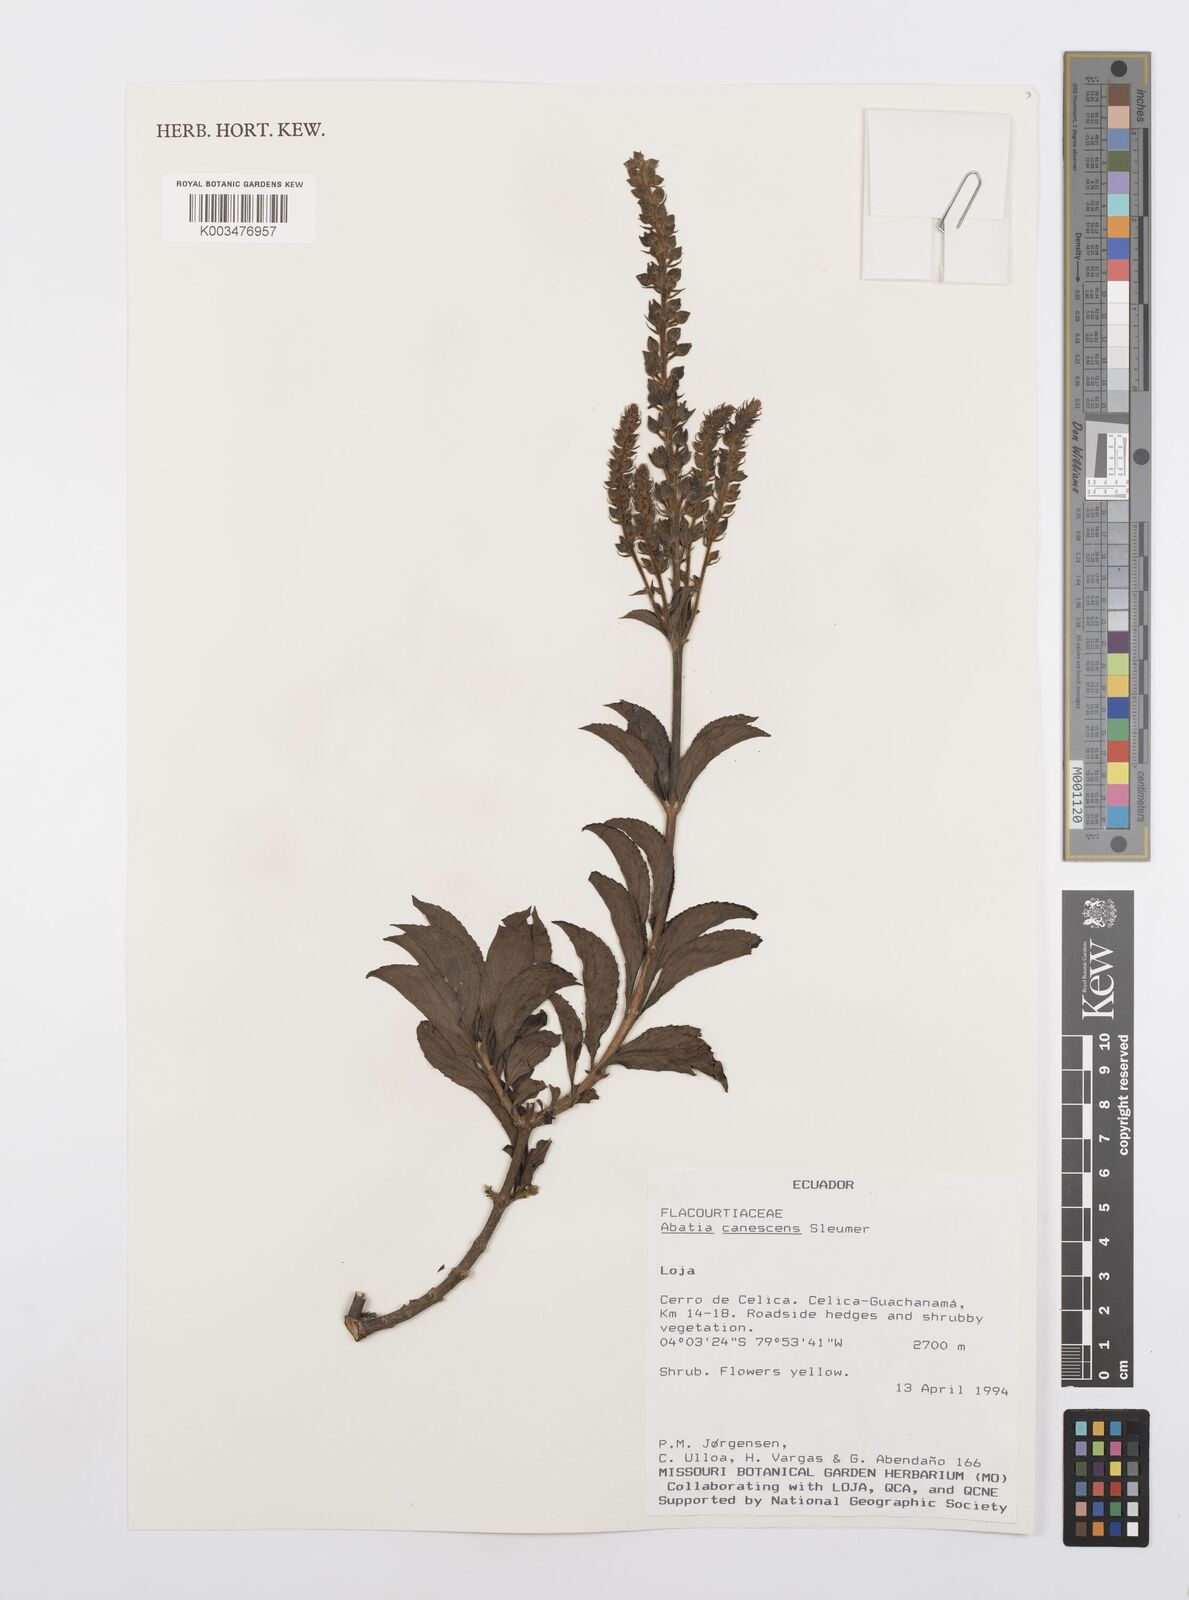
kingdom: Plantae
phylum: Tracheophyta
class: Magnoliopsida
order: Malpighiales
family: Salicaceae
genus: Abatia
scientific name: Abatia canescens
